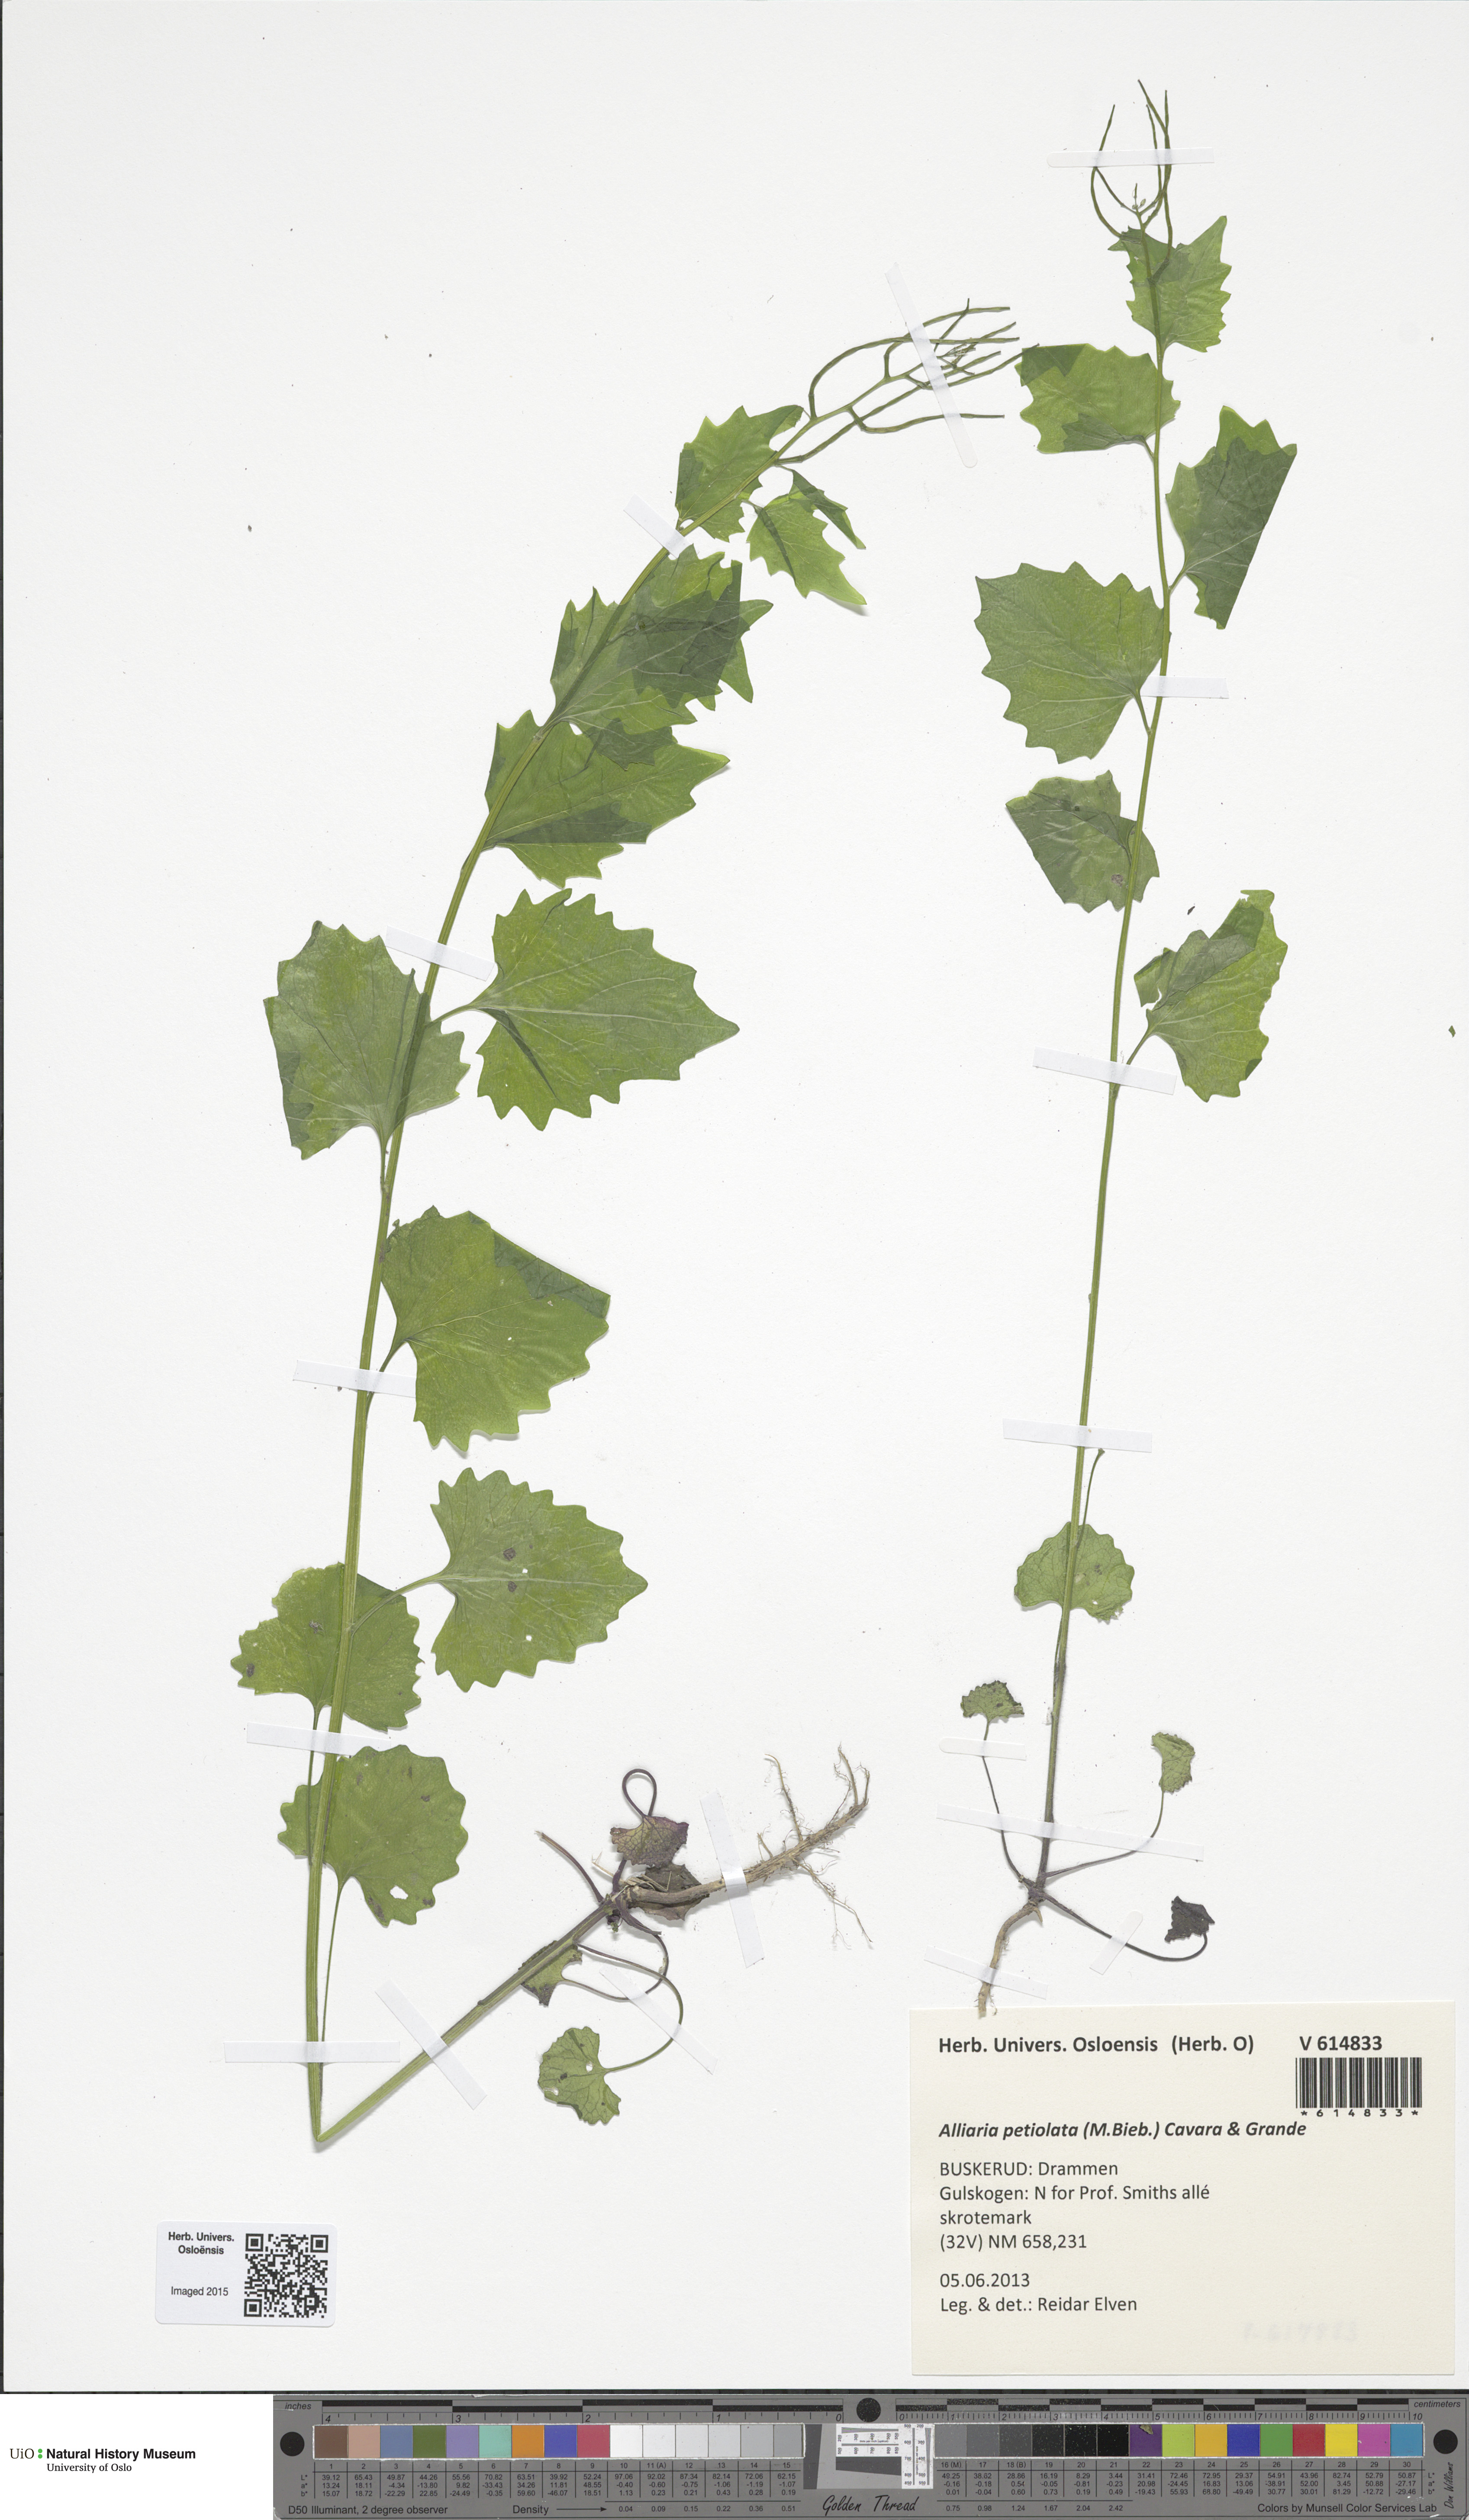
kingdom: Plantae
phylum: Tracheophyta
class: Magnoliopsida
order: Brassicales
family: Brassicaceae
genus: Alliaria
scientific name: Alliaria petiolata
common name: Garlic mustard
